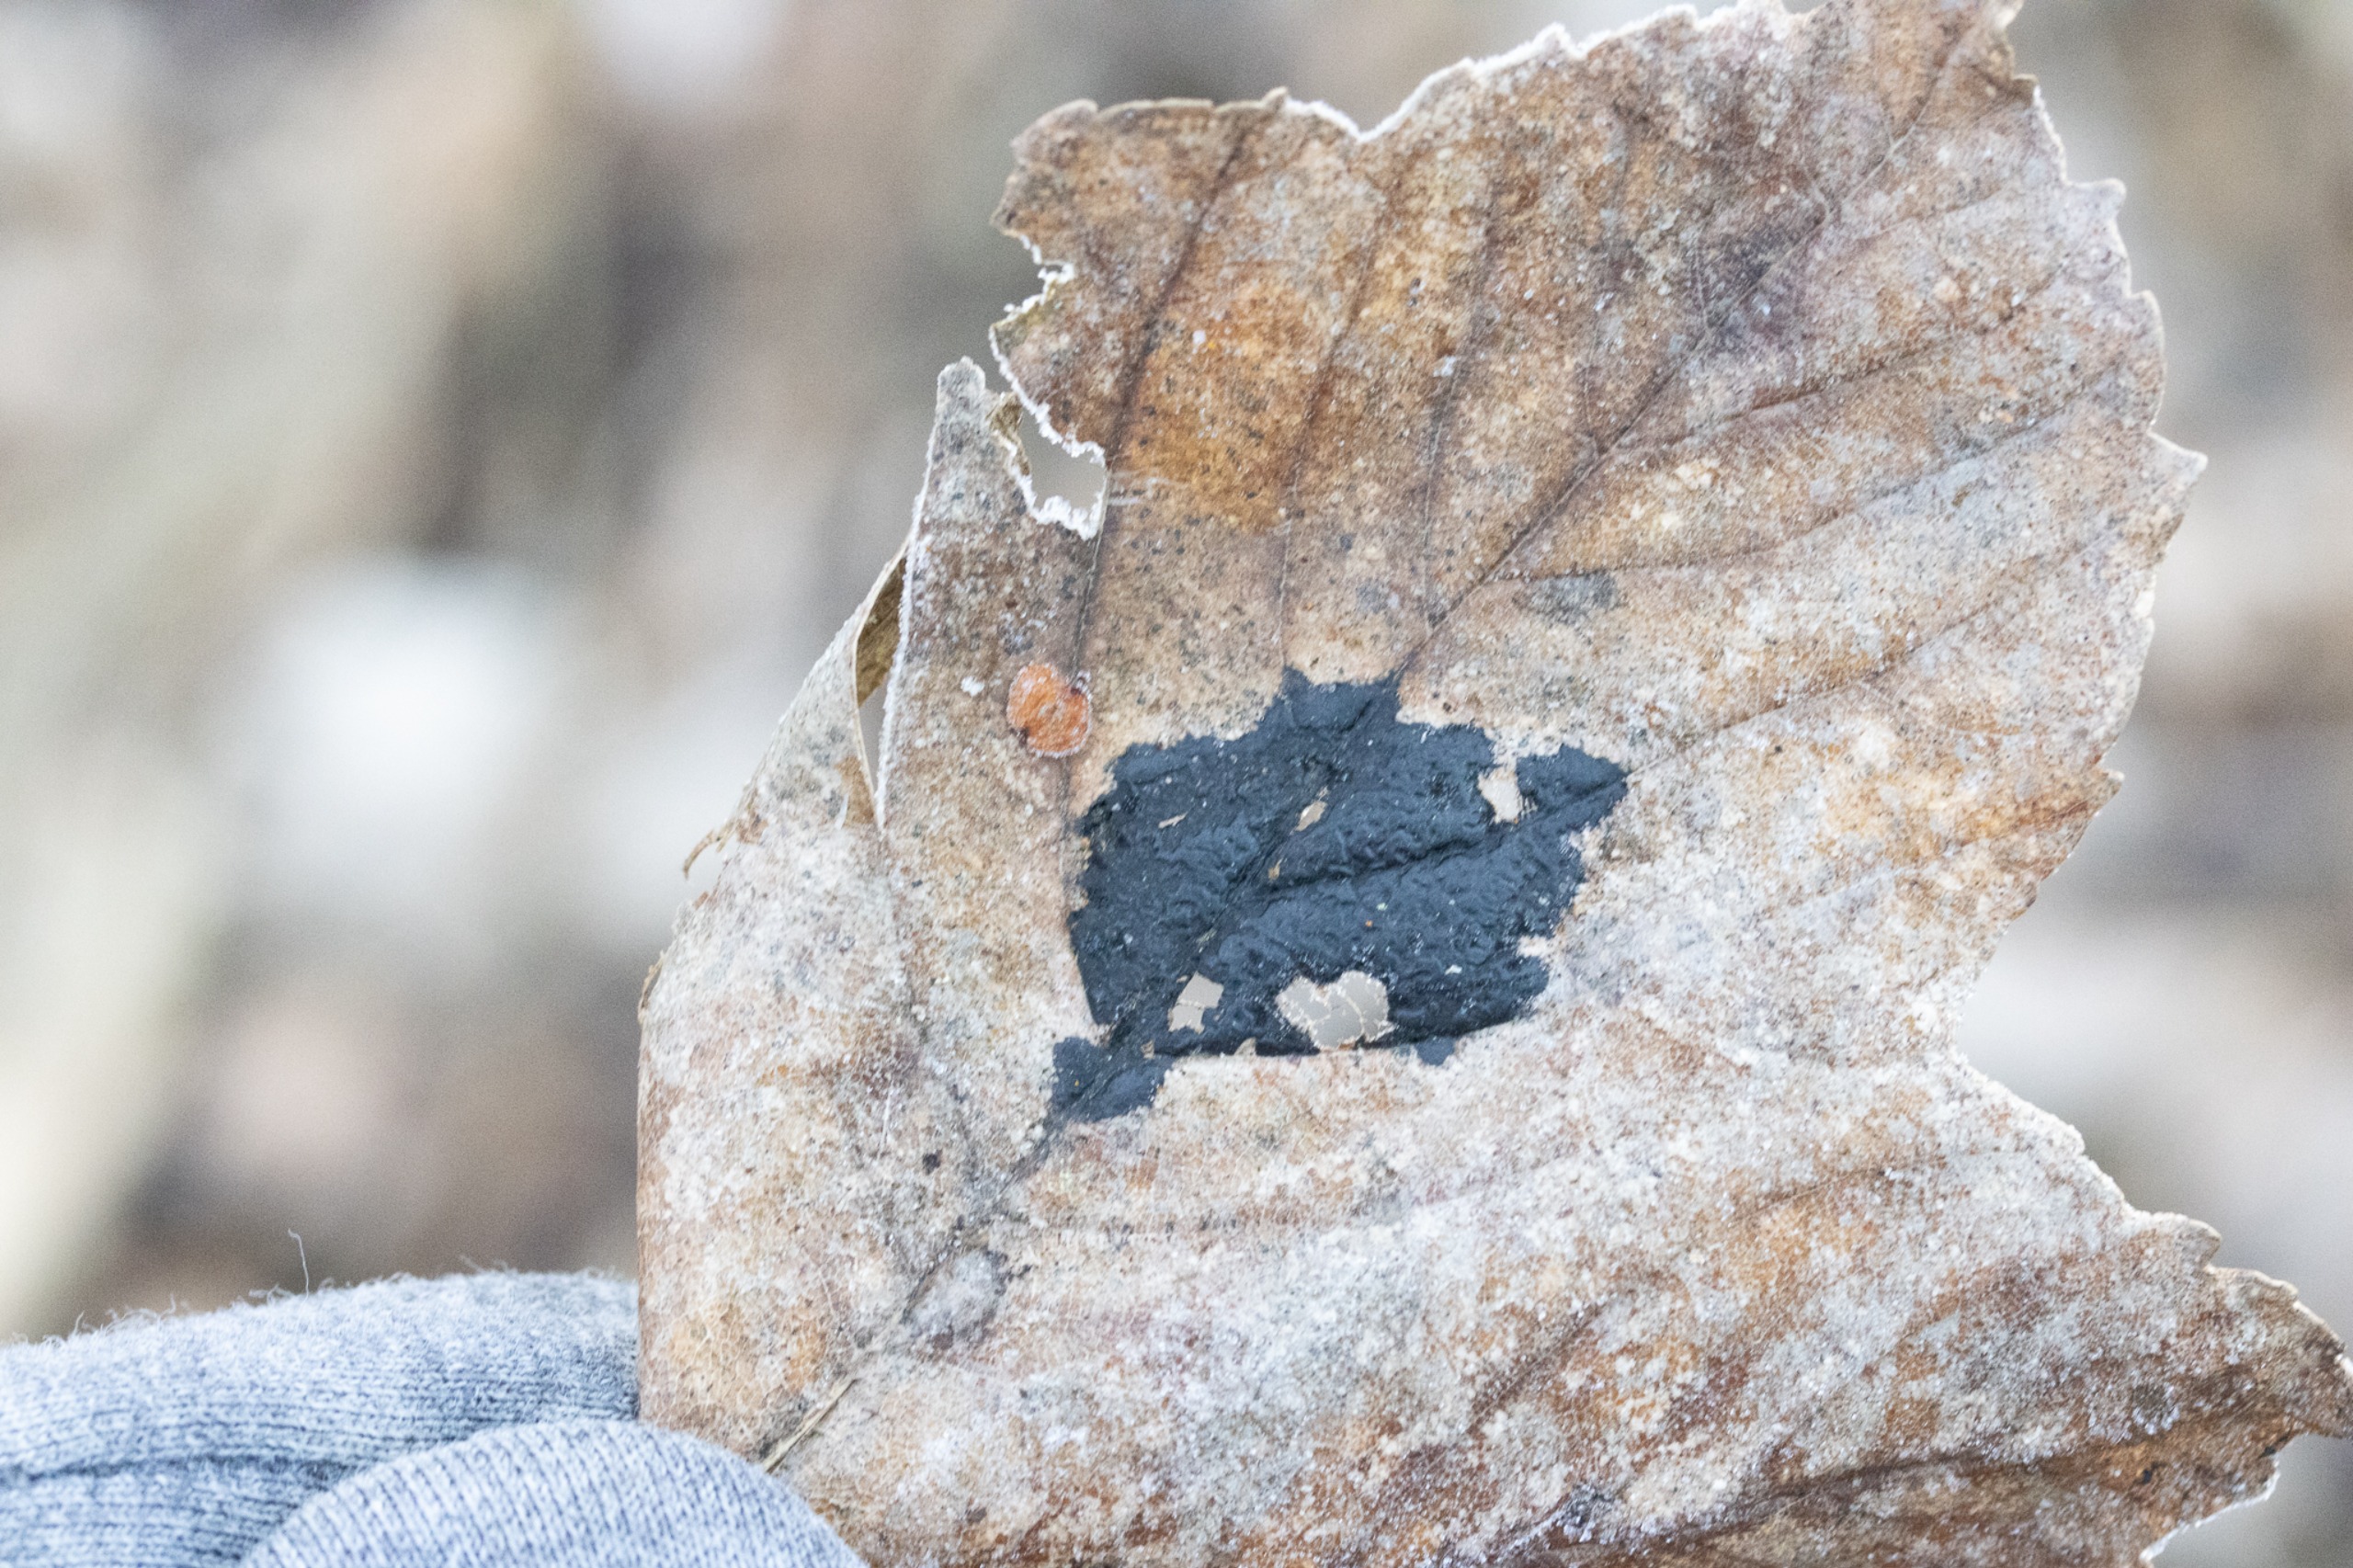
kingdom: Fungi
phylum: Ascomycota
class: Leotiomycetes
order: Rhytismatales
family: Rhytismataceae
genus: Rhytisma
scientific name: Rhytisma acerinum
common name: Ahorn-rynkeplet
